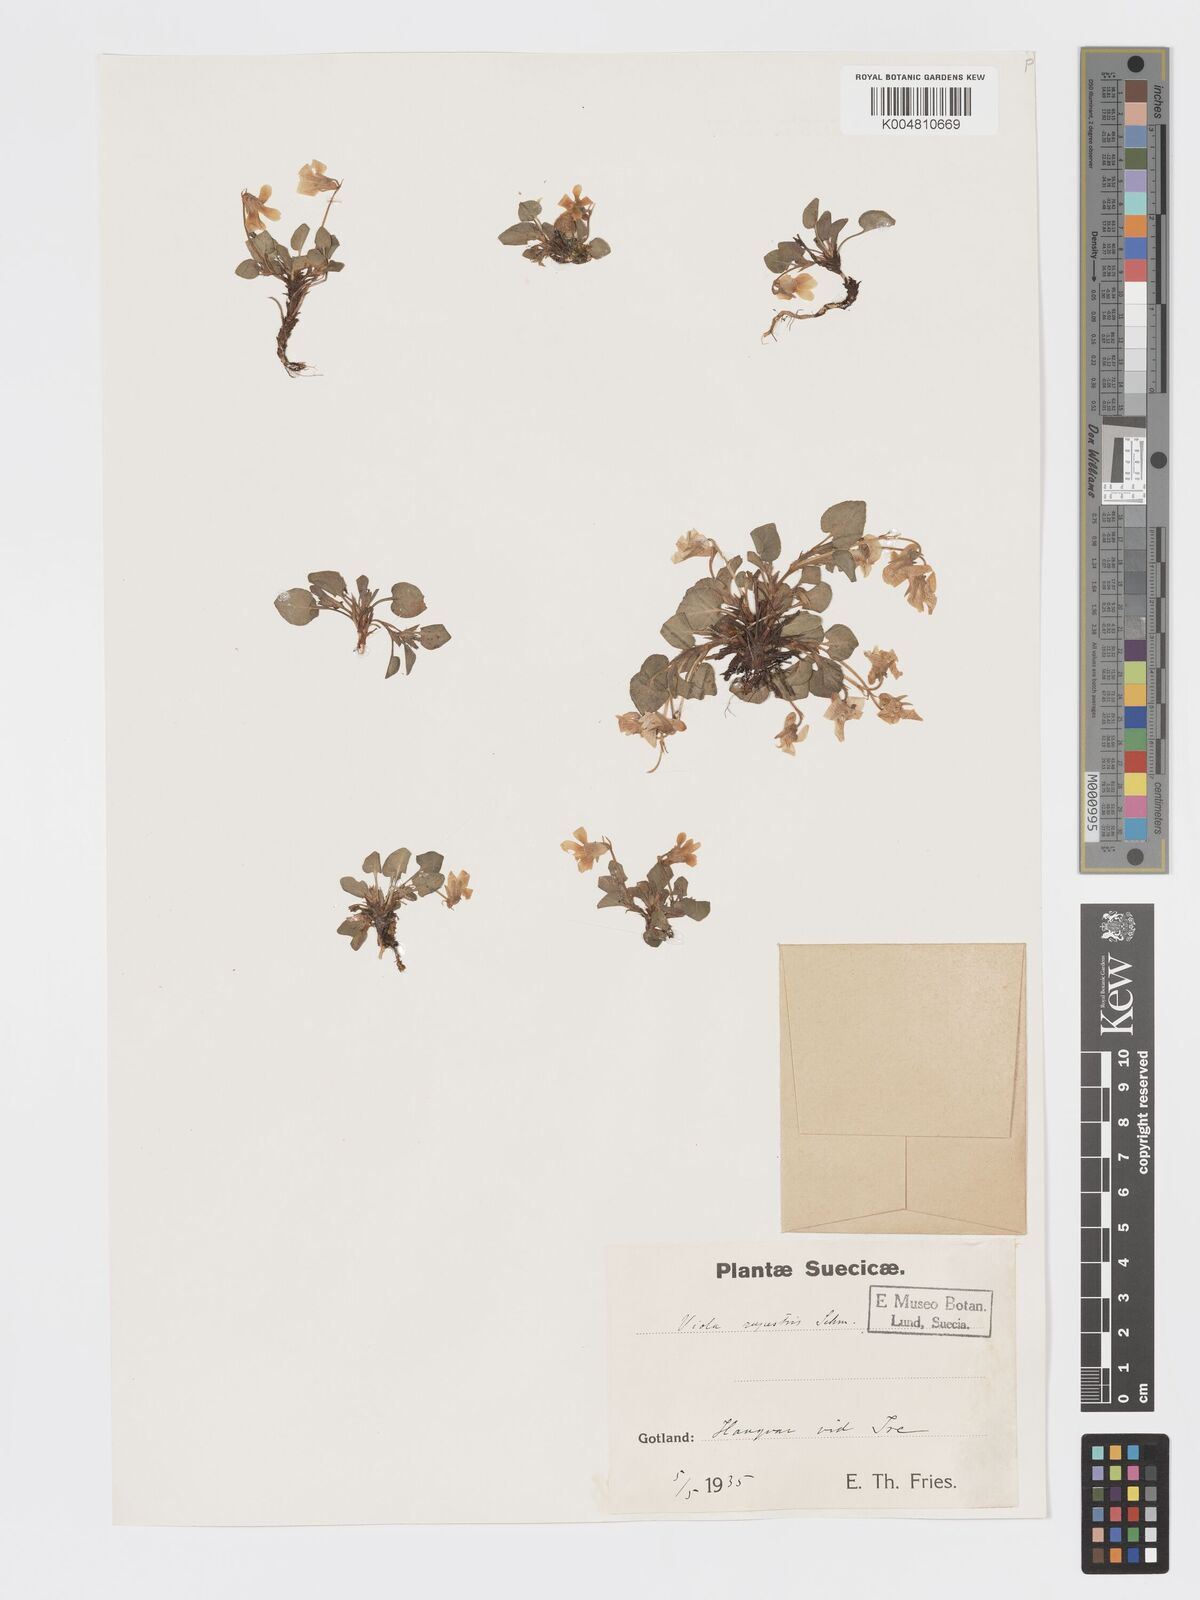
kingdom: Plantae
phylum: Tracheophyta
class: Magnoliopsida
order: Malpighiales
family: Violaceae
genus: Viola
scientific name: Viola rupestris
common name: Teesdale violet
